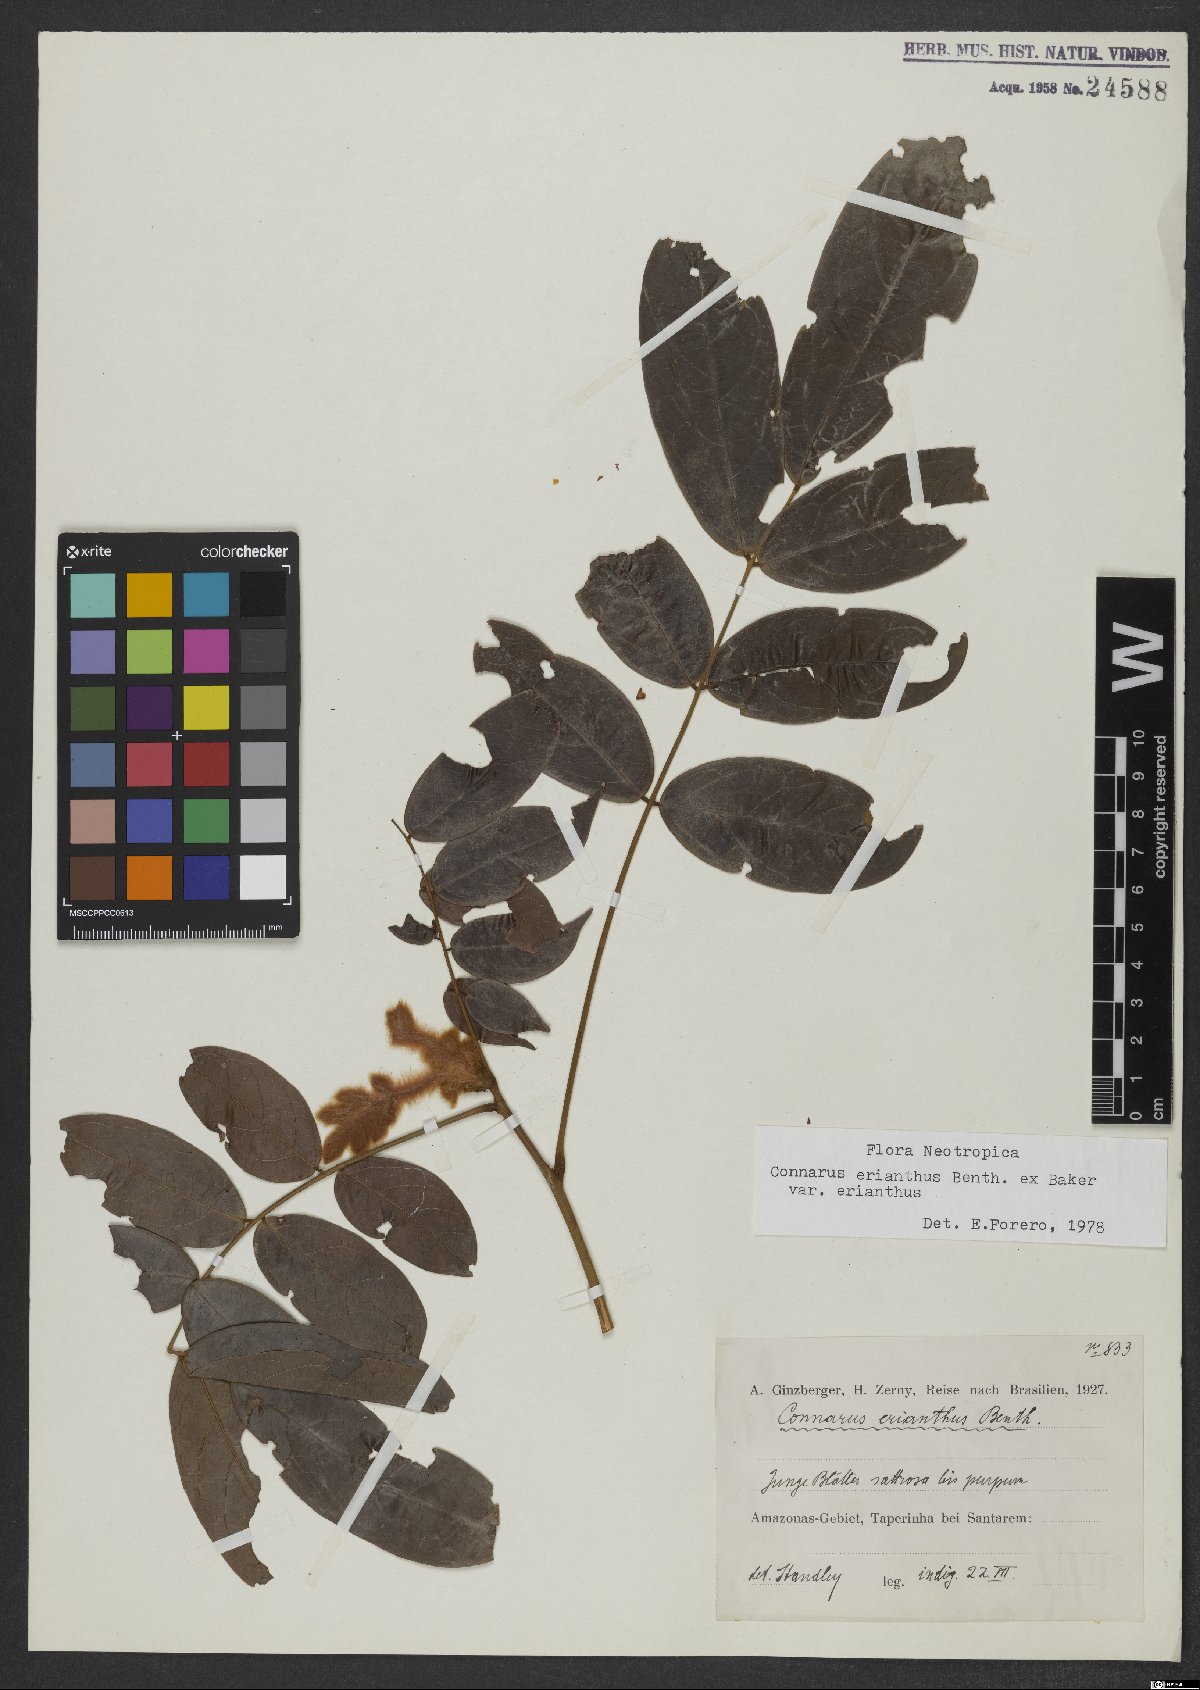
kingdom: Plantae
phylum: Tracheophyta
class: Magnoliopsida
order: Oxalidales
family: Connaraceae
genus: Connarus
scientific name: Connarus erianthus
